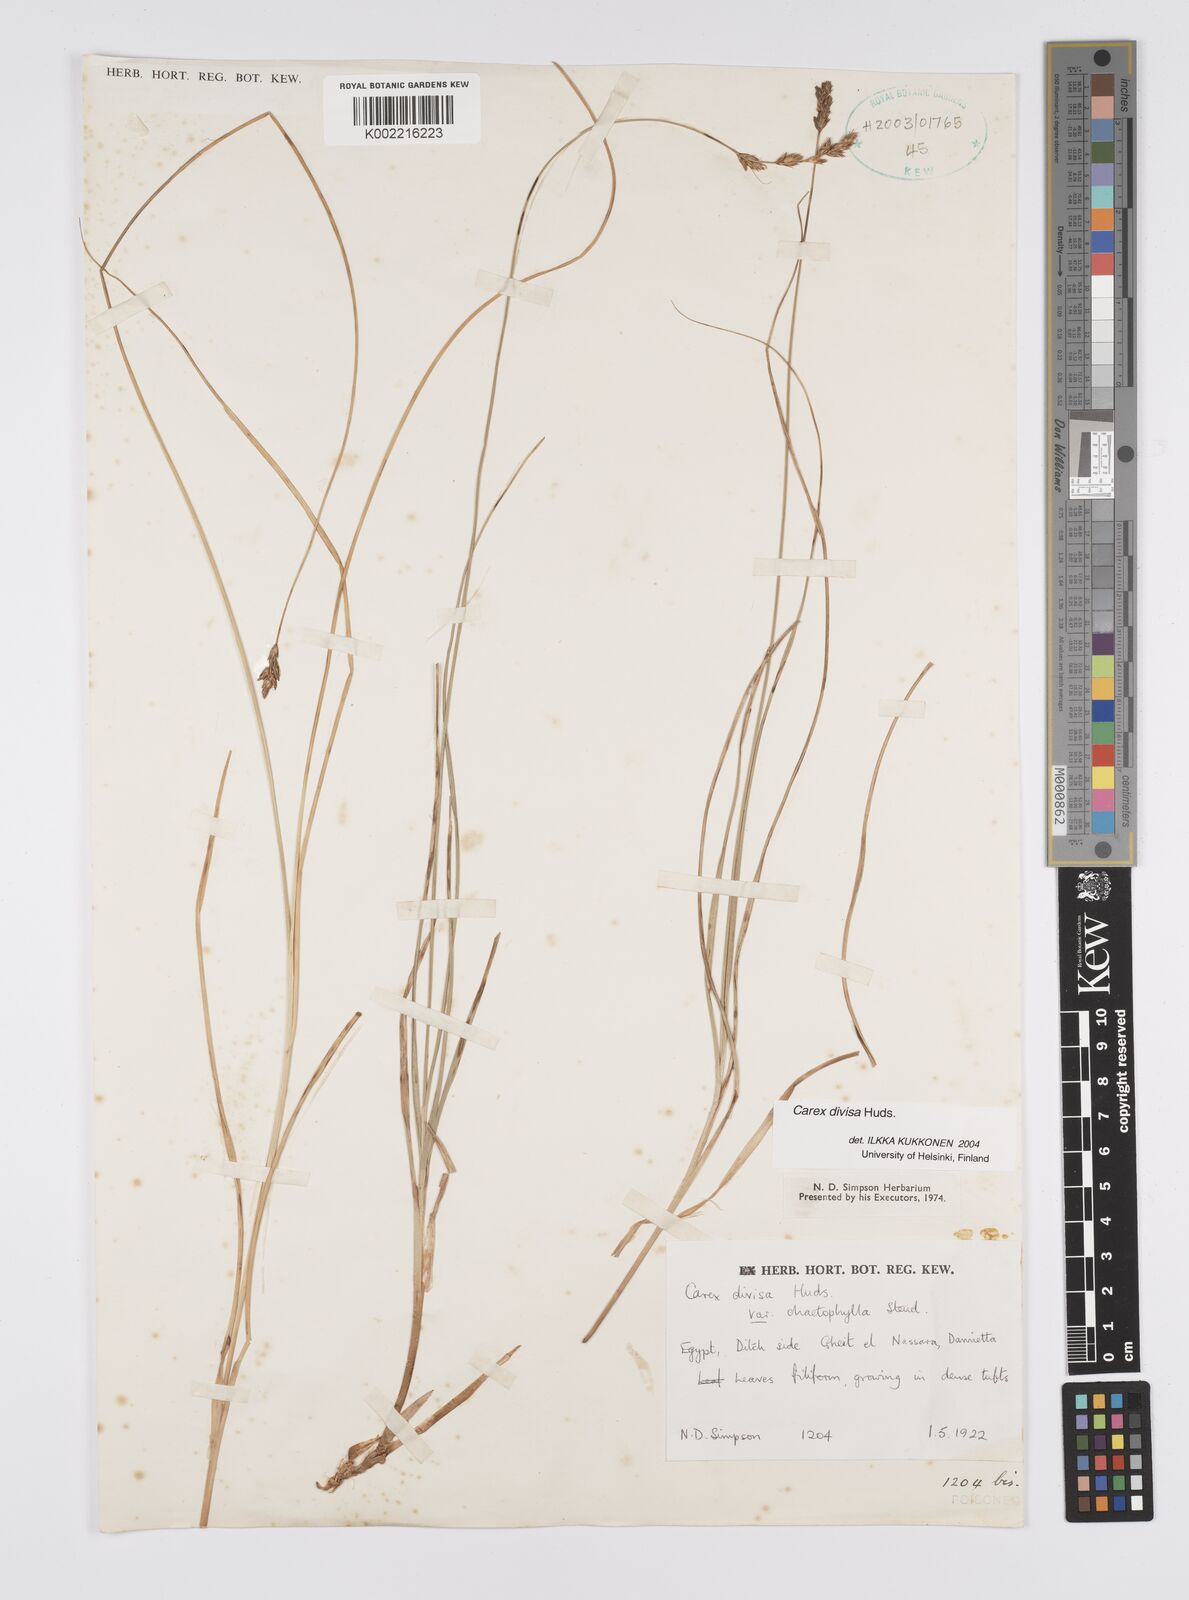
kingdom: Plantae
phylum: Tracheophyta
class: Liliopsida
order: Poales
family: Cyperaceae
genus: Carex
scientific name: Carex divisa
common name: Divided sedge
